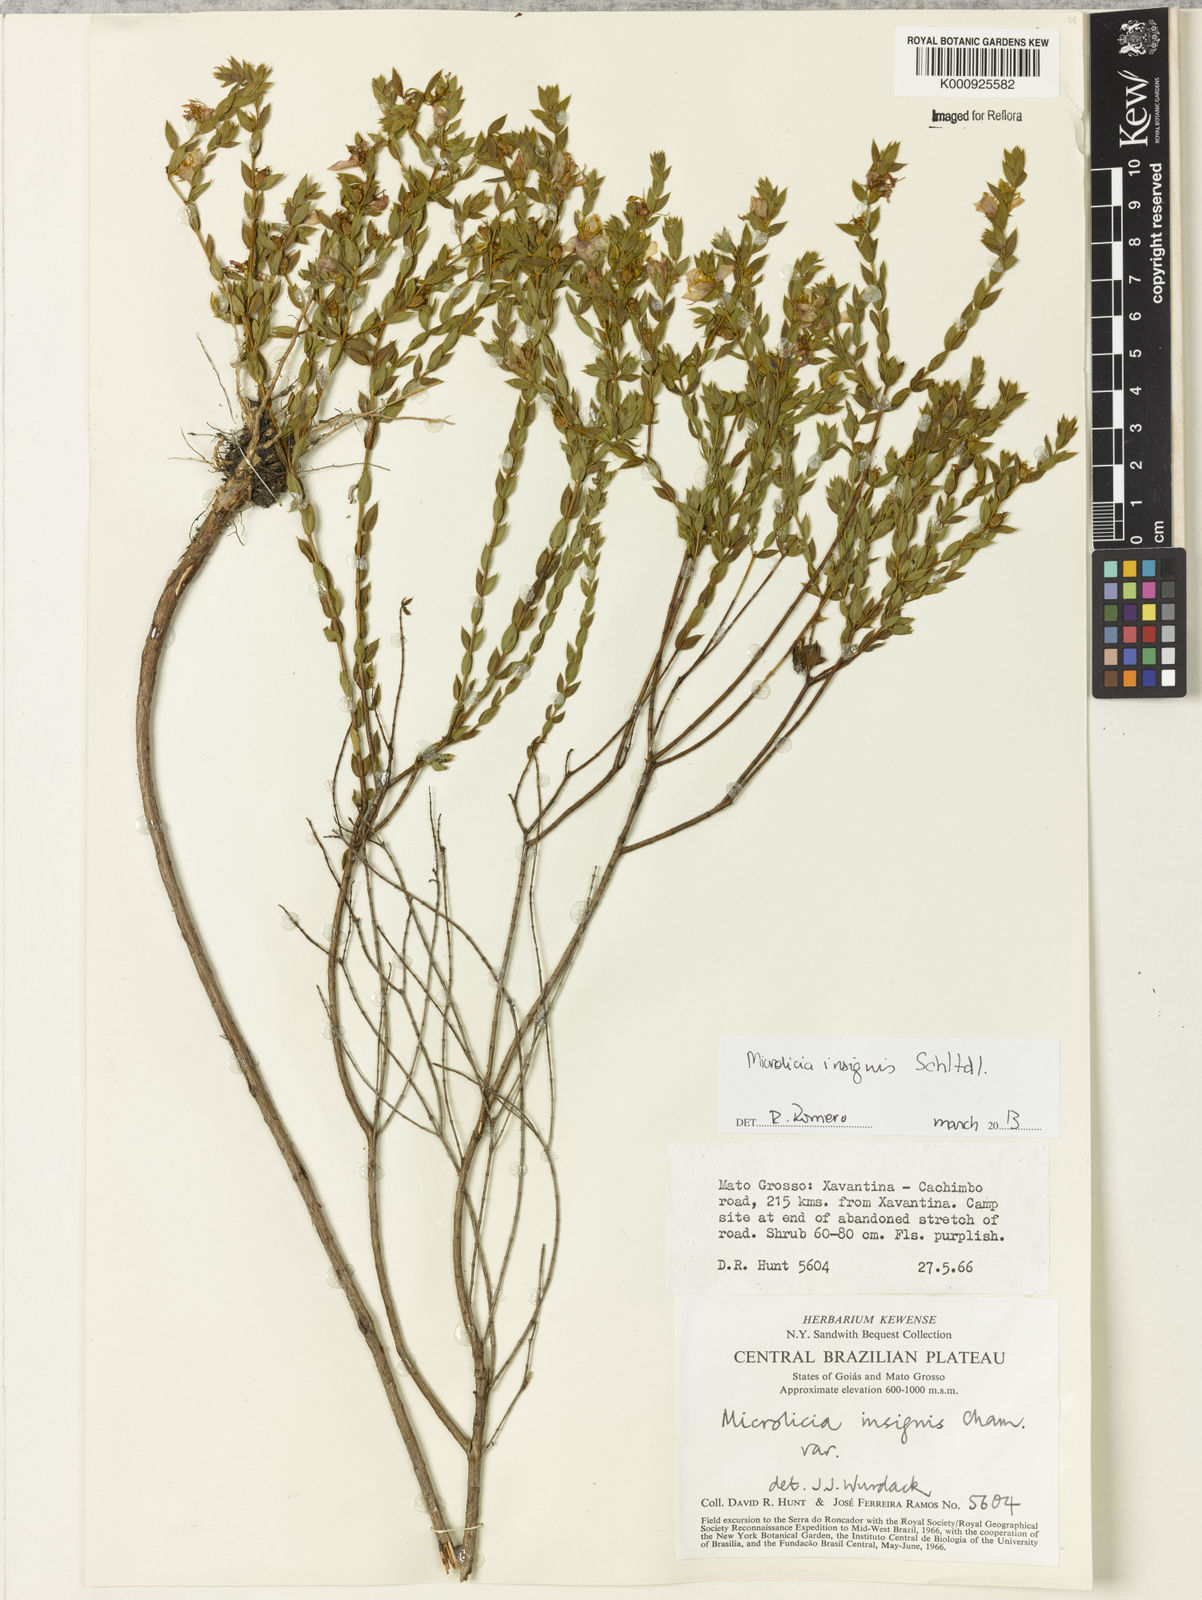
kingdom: Plantae
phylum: Tracheophyta
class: Magnoliopsida
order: Myrtales
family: Melastomataceae
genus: Microlicia
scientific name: Microlicia
